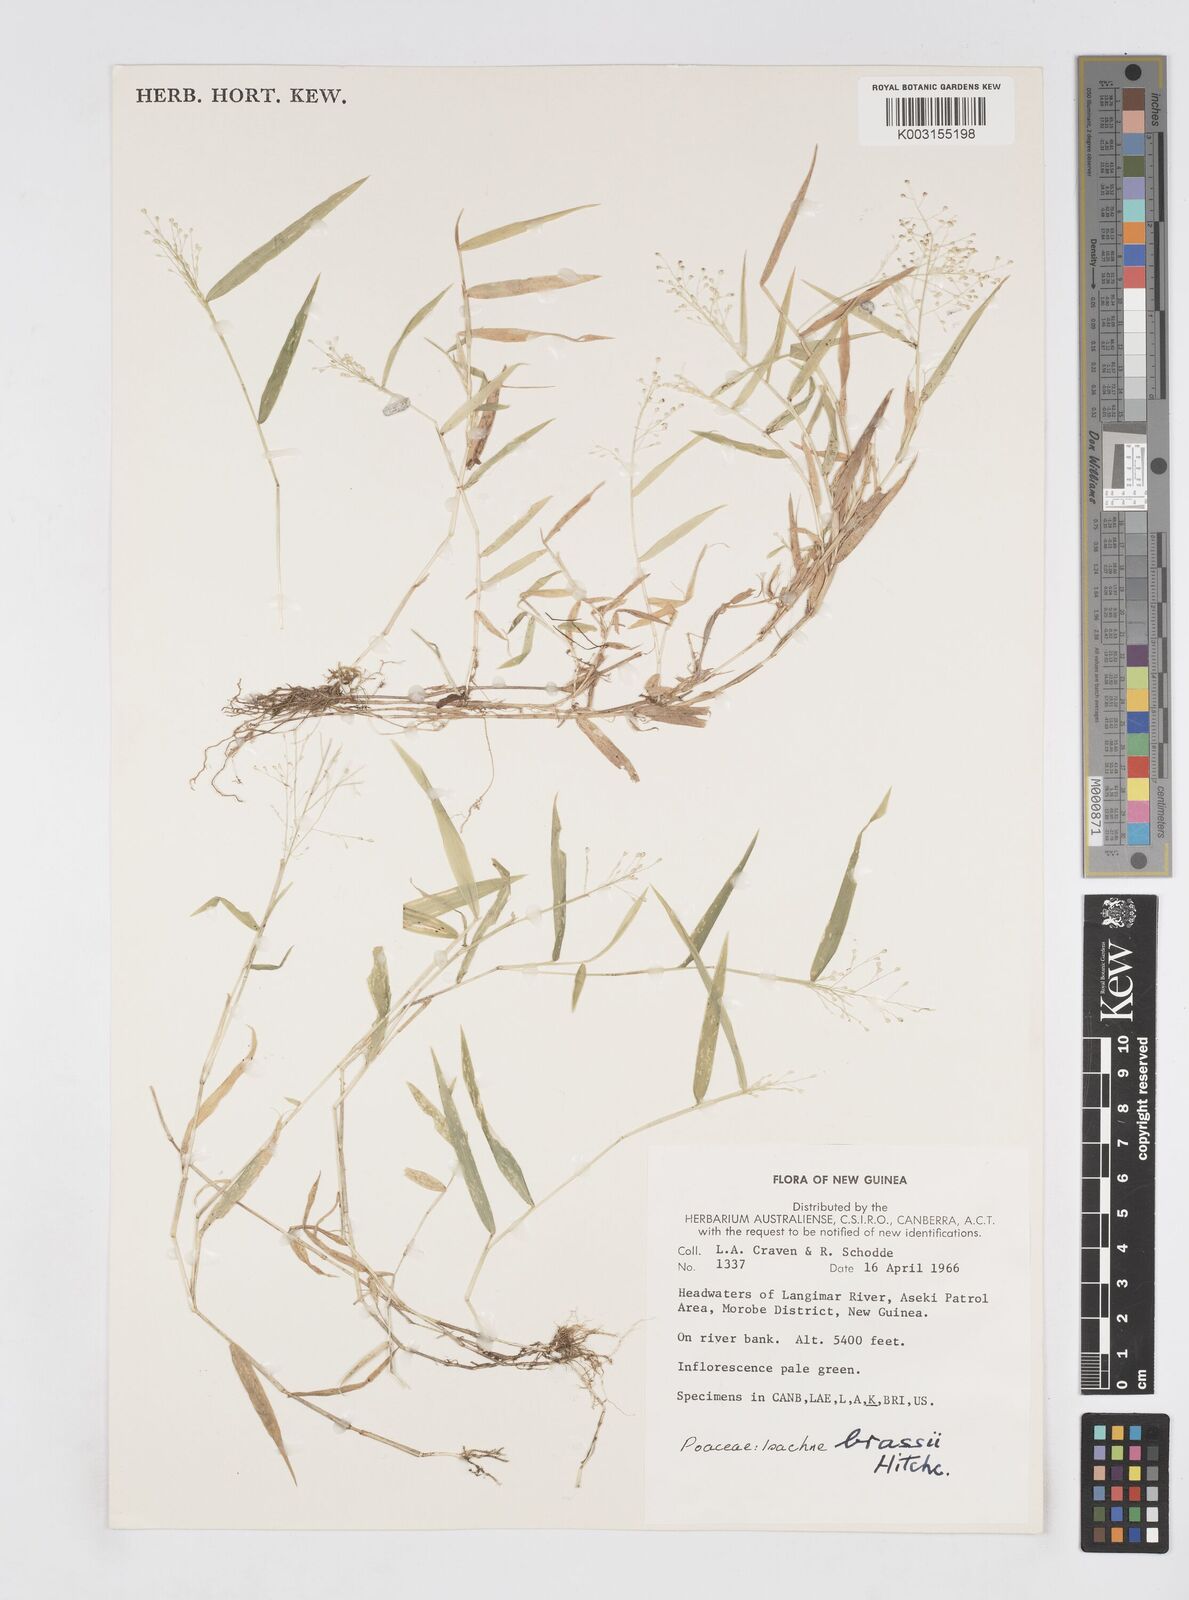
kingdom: Plantae
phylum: Tracheophyta
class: Liliopsida
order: Poales
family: Poaceae
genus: Isachne
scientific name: Isachne brassii
